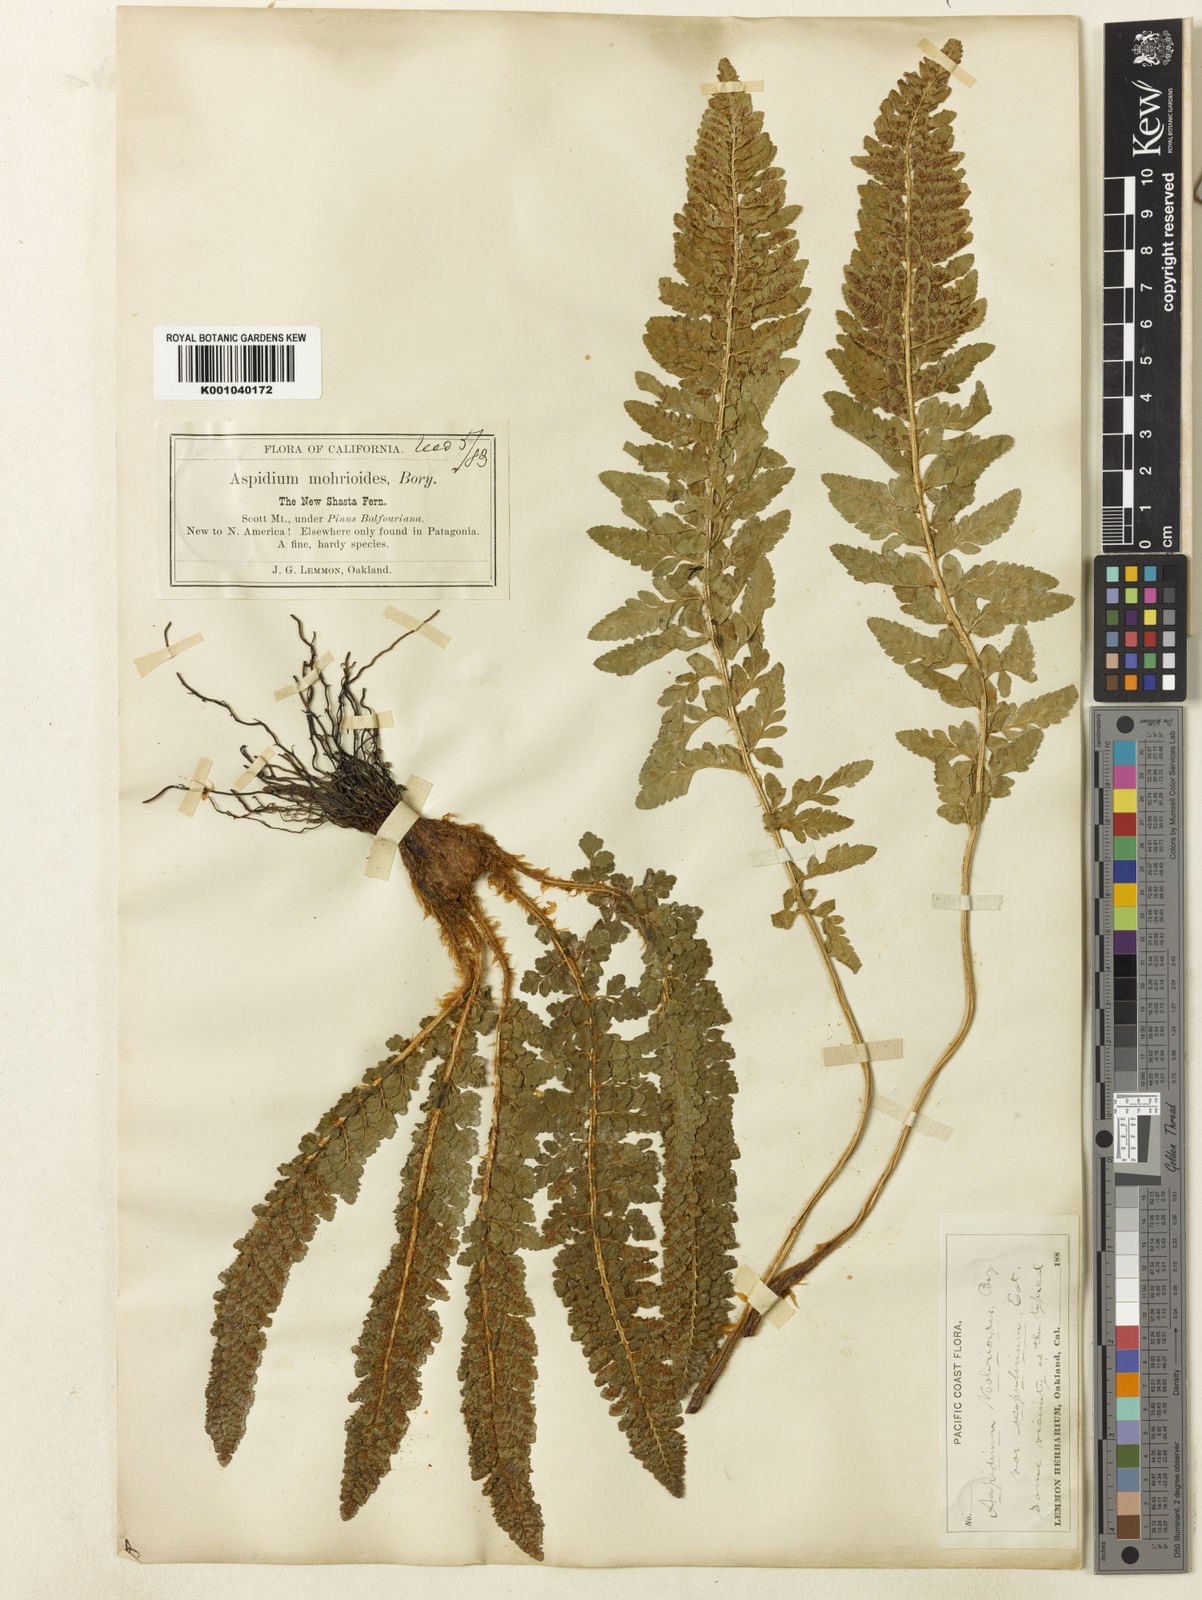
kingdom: Plantae
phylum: Tracheophyta
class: Polypodiopsida
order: Polypodiales
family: Dryopteridaceae
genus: Polystichum
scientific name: Polystichum lemmonii
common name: Lemmon's holly fern
